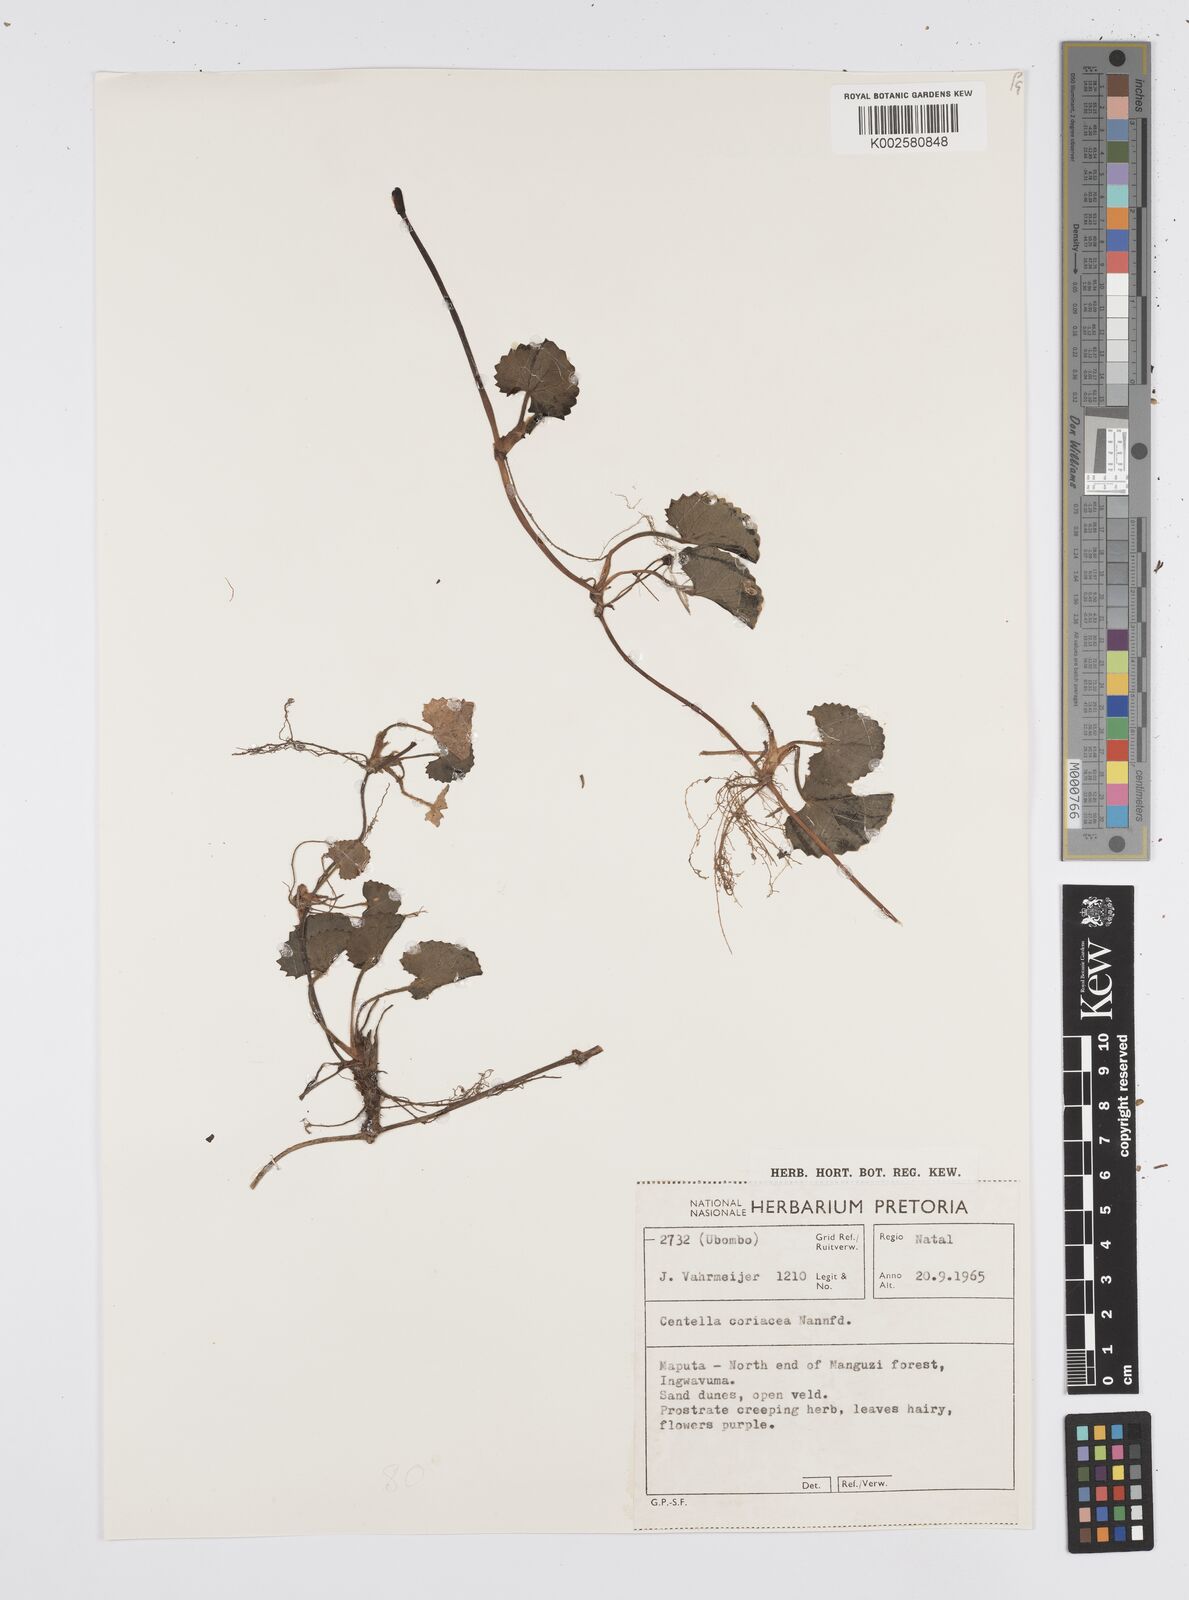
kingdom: Plantae
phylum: Tracheophyta
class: Magnoliopsida
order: Apiales
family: Apiaceae
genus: Centella
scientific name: Centella coriacea
